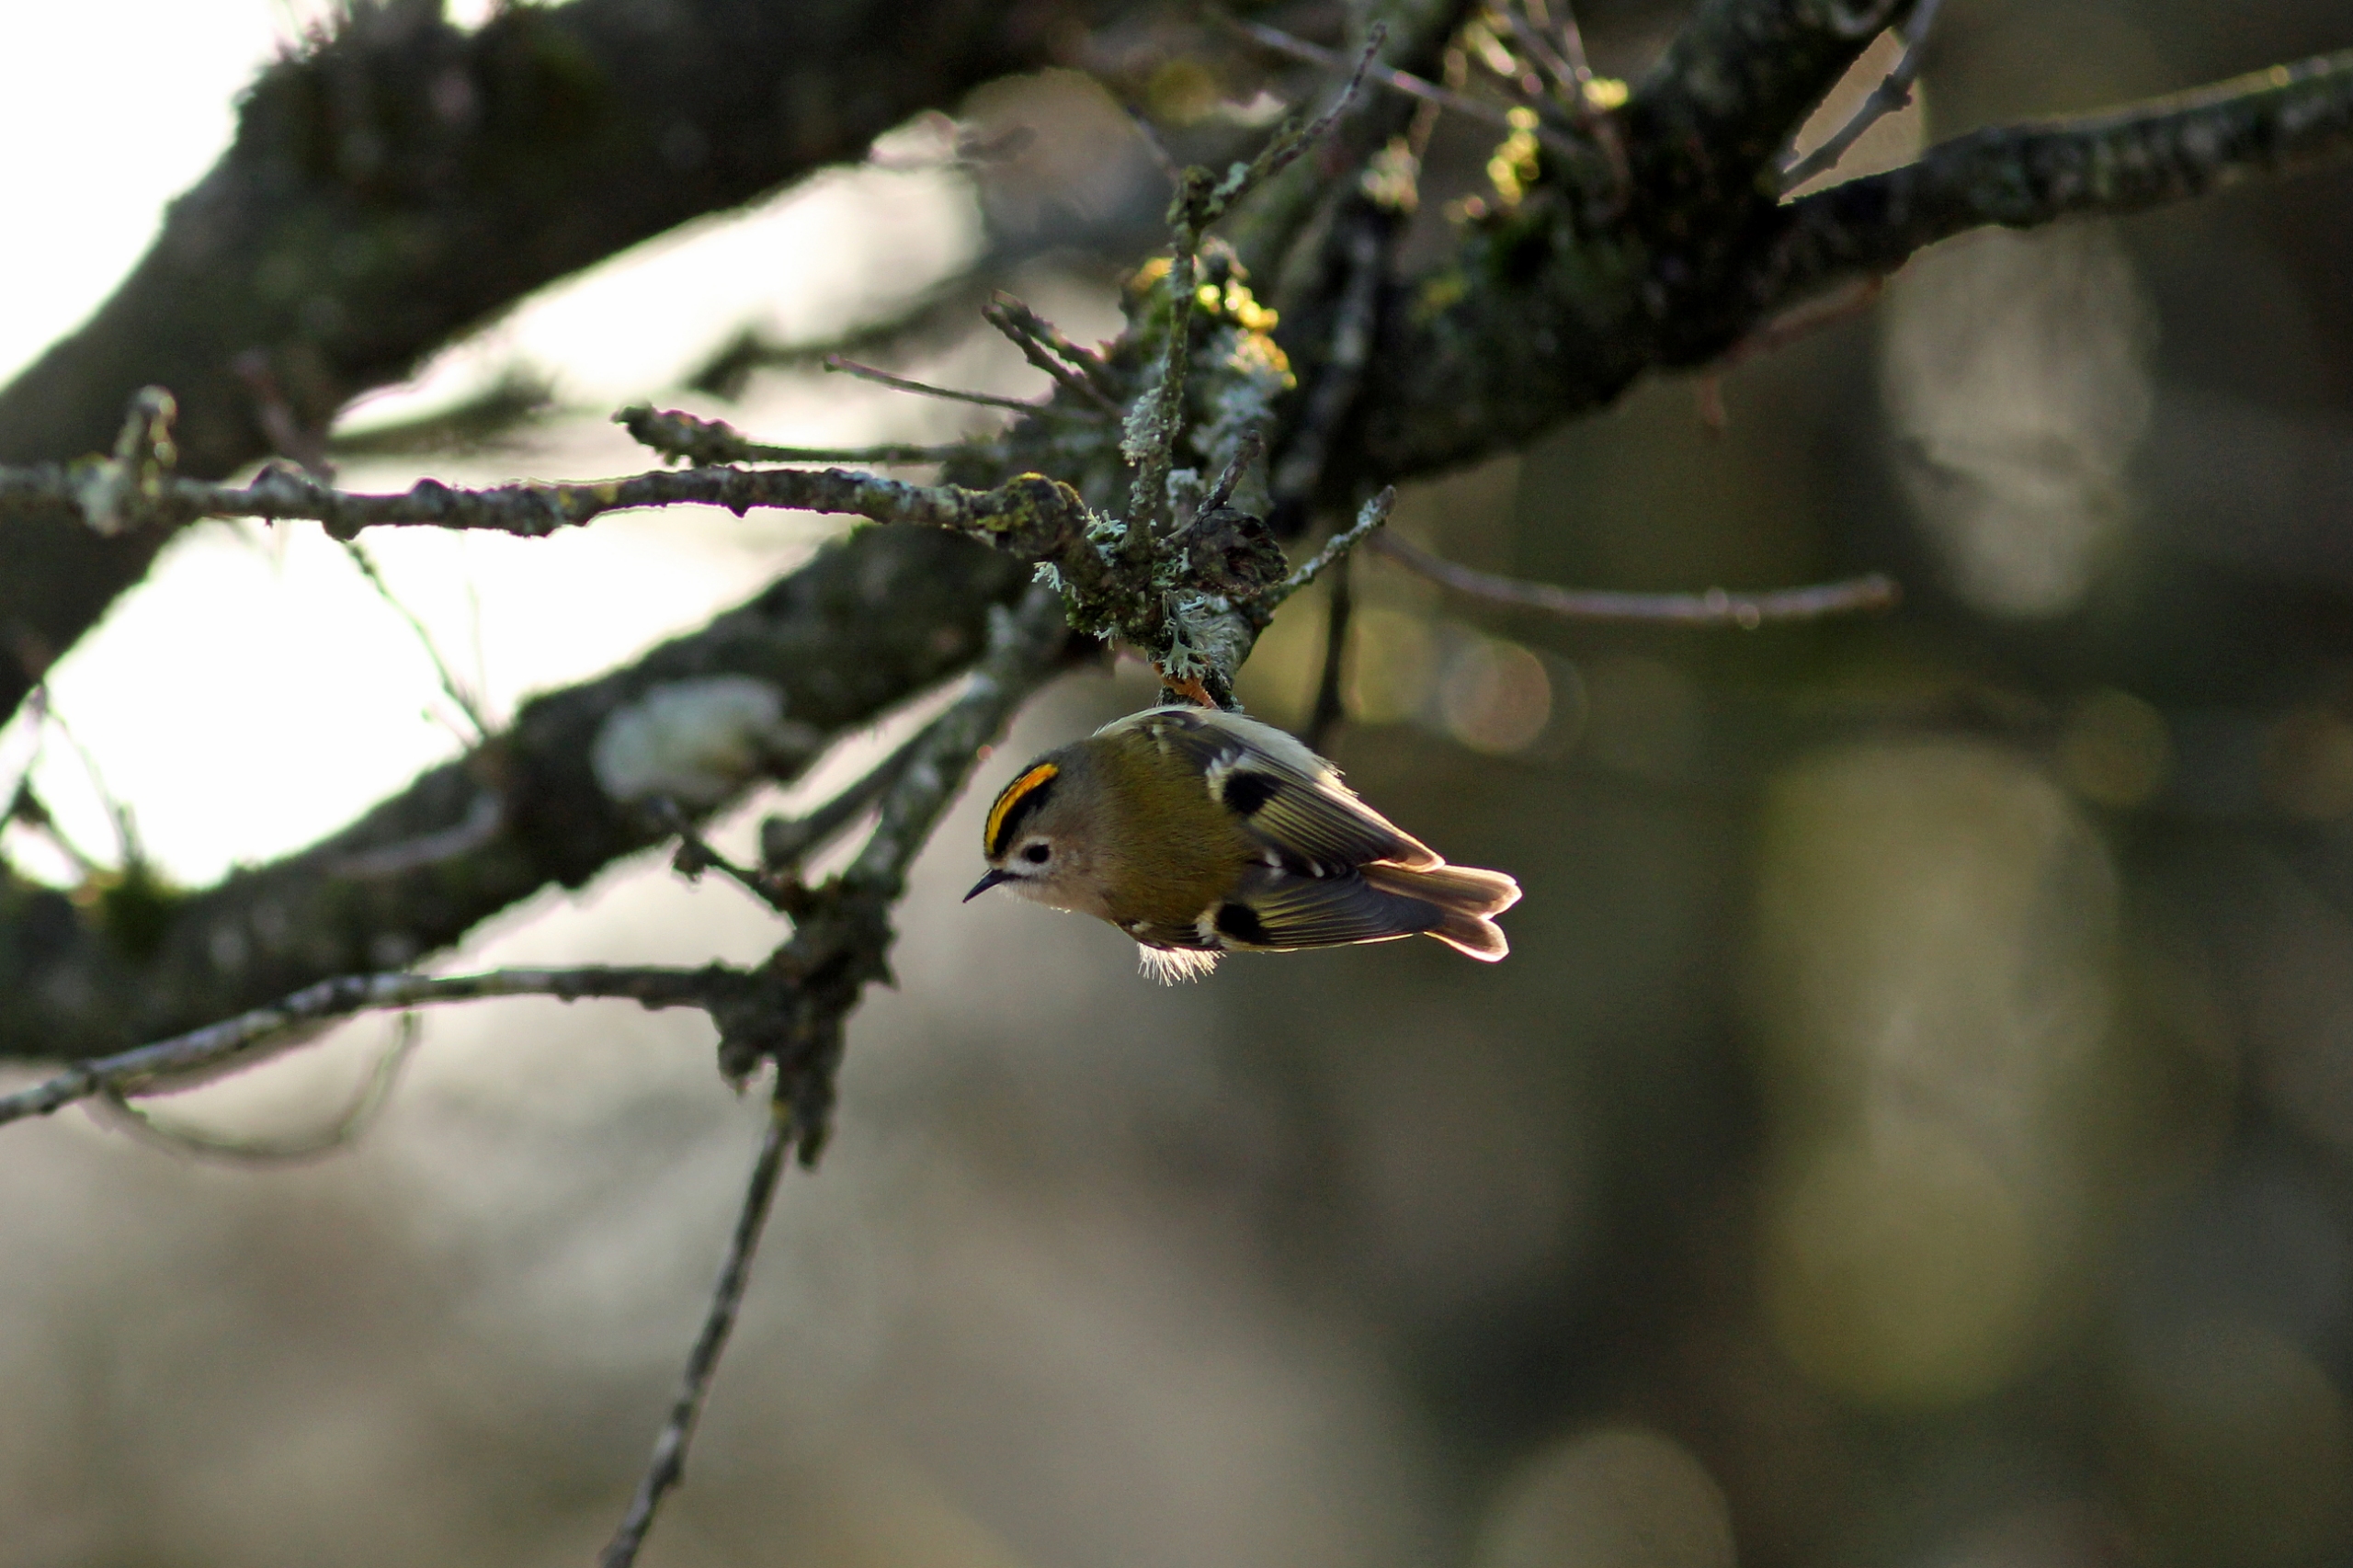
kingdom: Animalia
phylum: Chordata
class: Aves
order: Passeriformes
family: Regulidae
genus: Regulus
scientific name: Regulus regulus
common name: Fuglekonge
